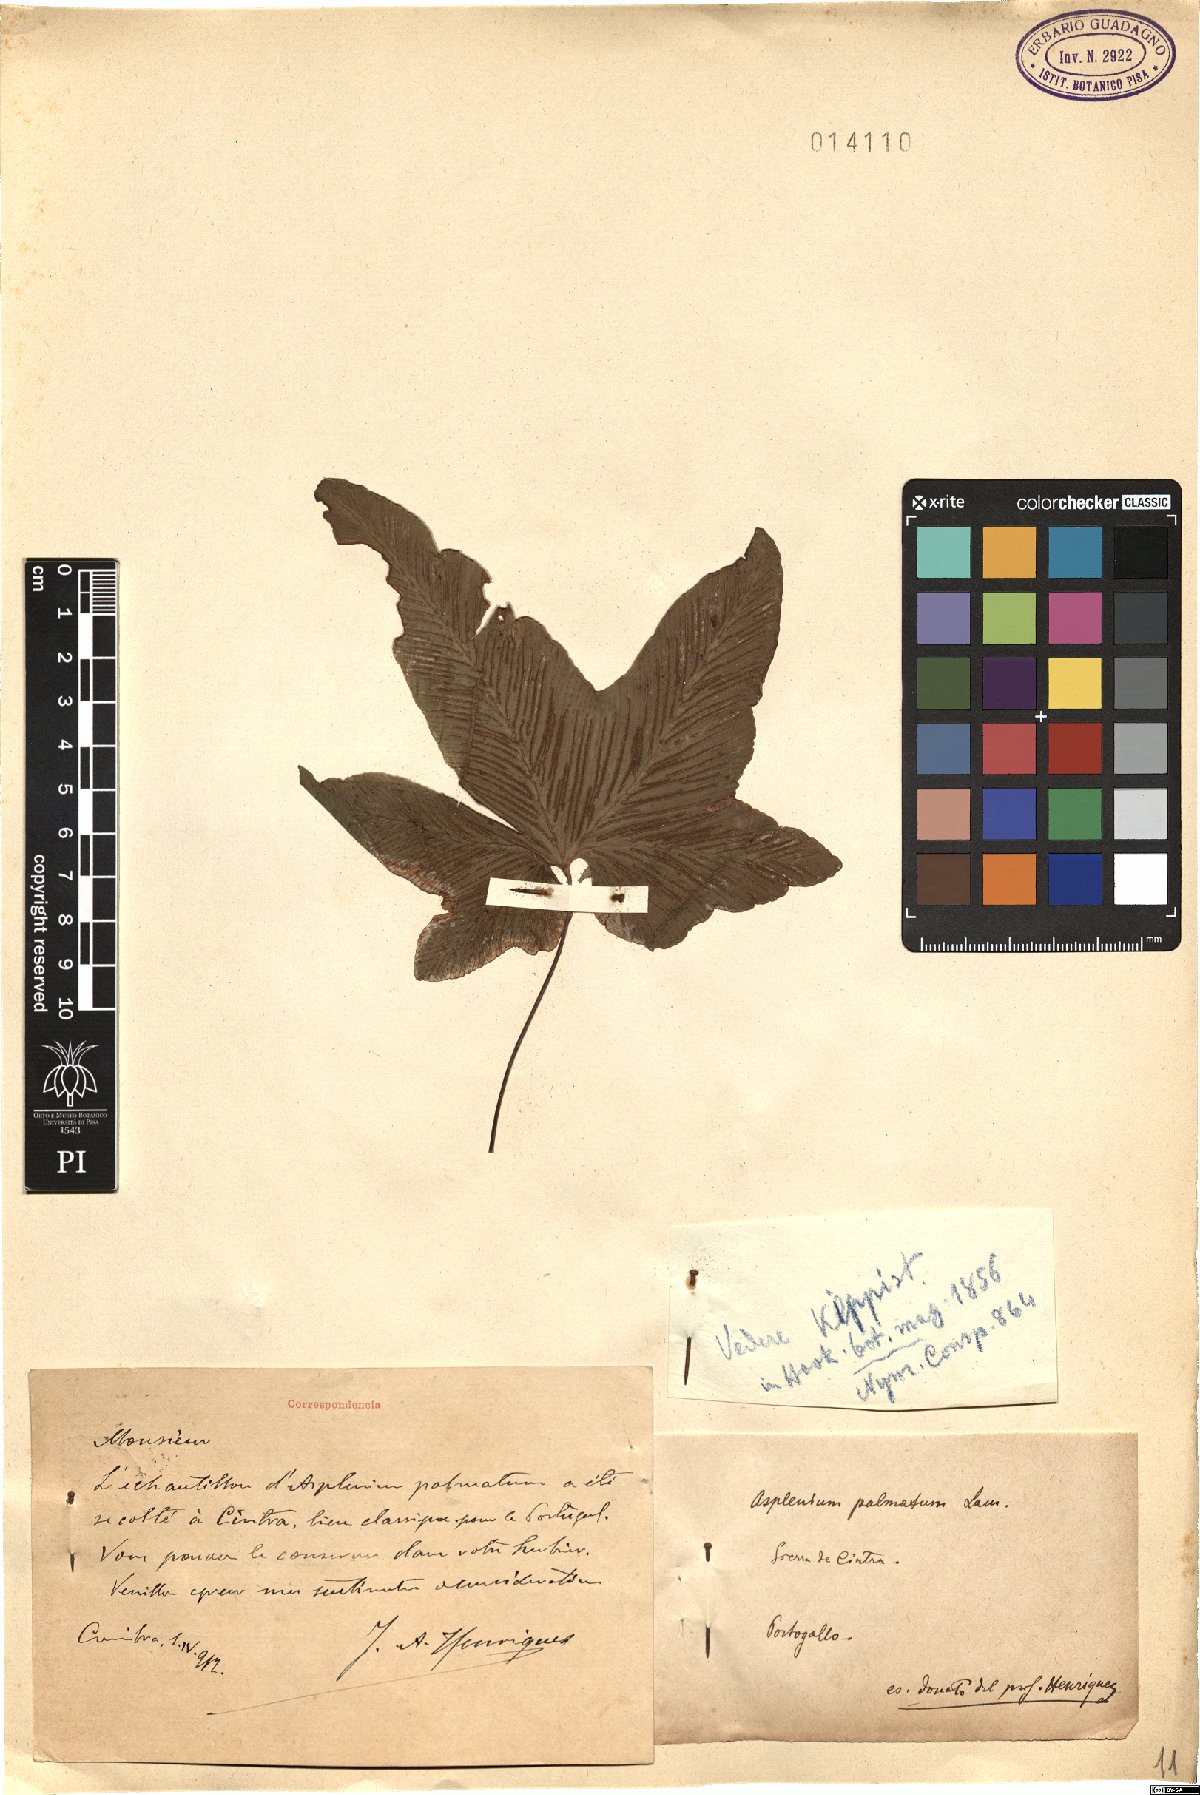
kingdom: Plantae
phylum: Tracheophyta
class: Polypodiopsida
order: Polypodiales
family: Aspleniaceae
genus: Asplenium
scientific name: Asplenium hemionitis
